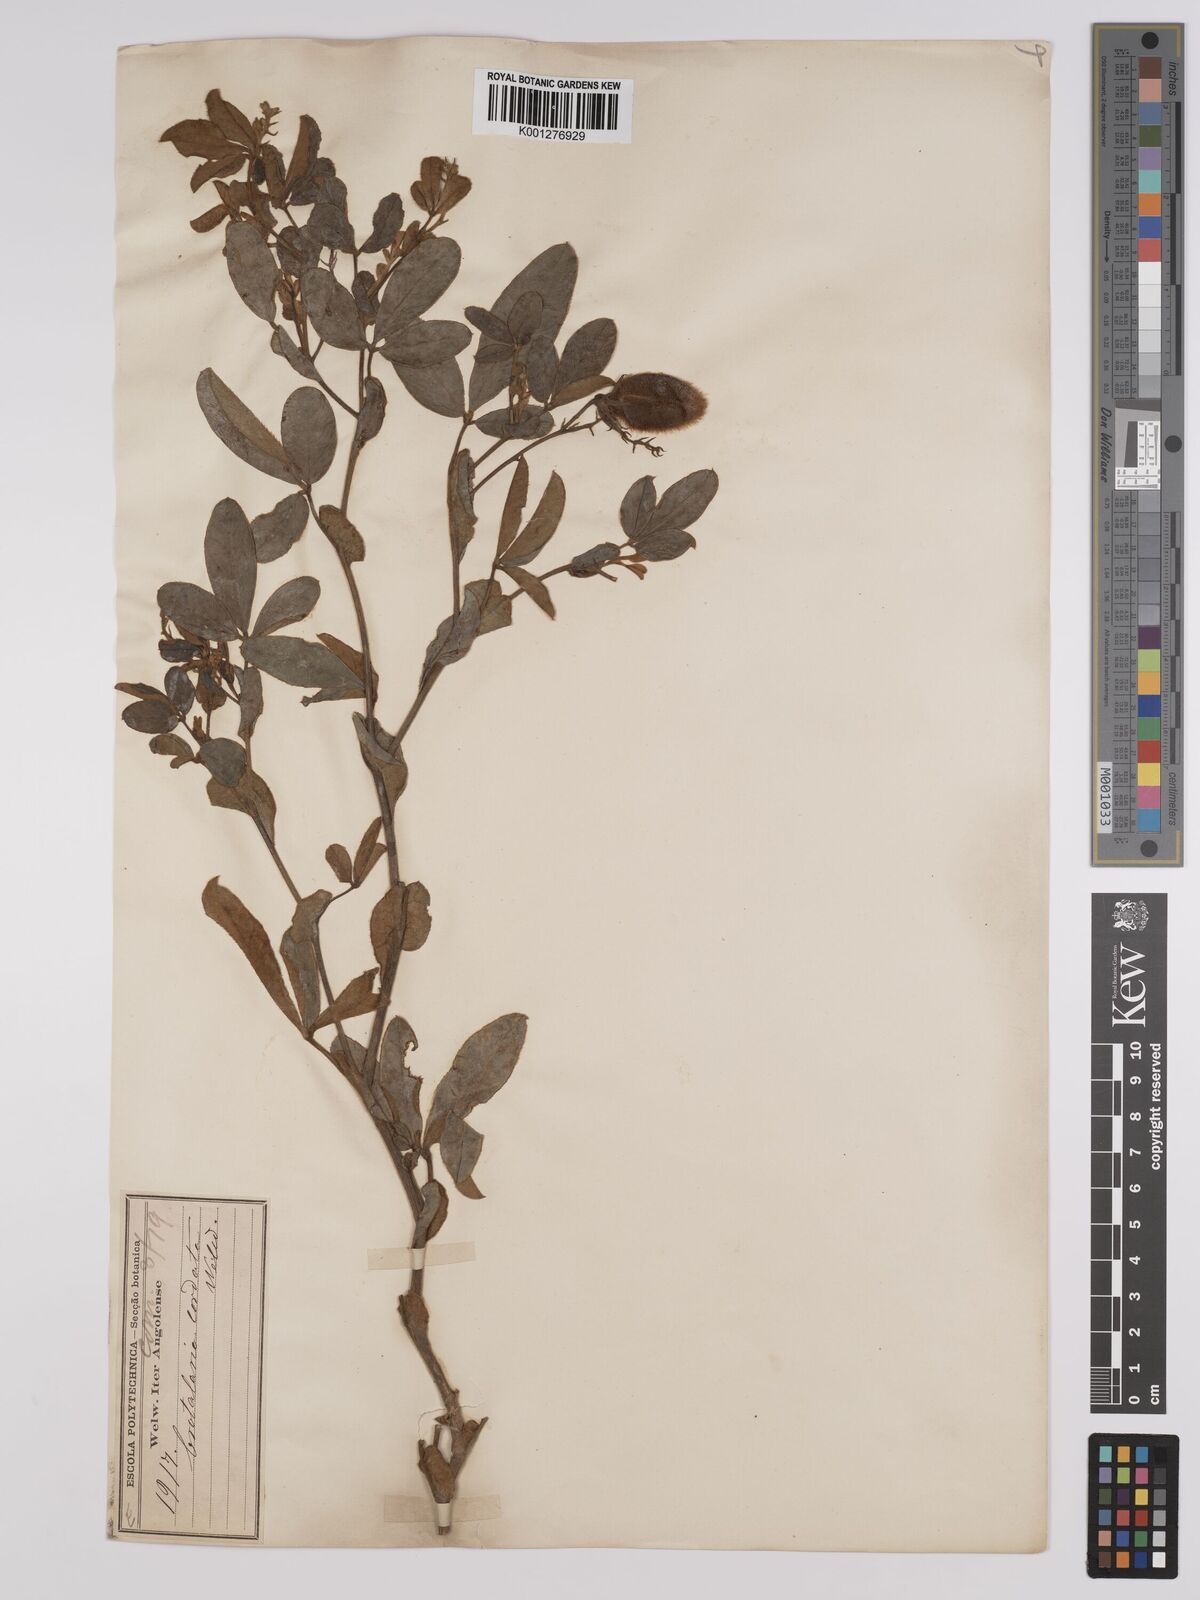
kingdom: Plantae
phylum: Tracheophyta
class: Magnoliopsida
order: Fabales
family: Fabaceae
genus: Crotalaria
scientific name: Crotalaria cordata
